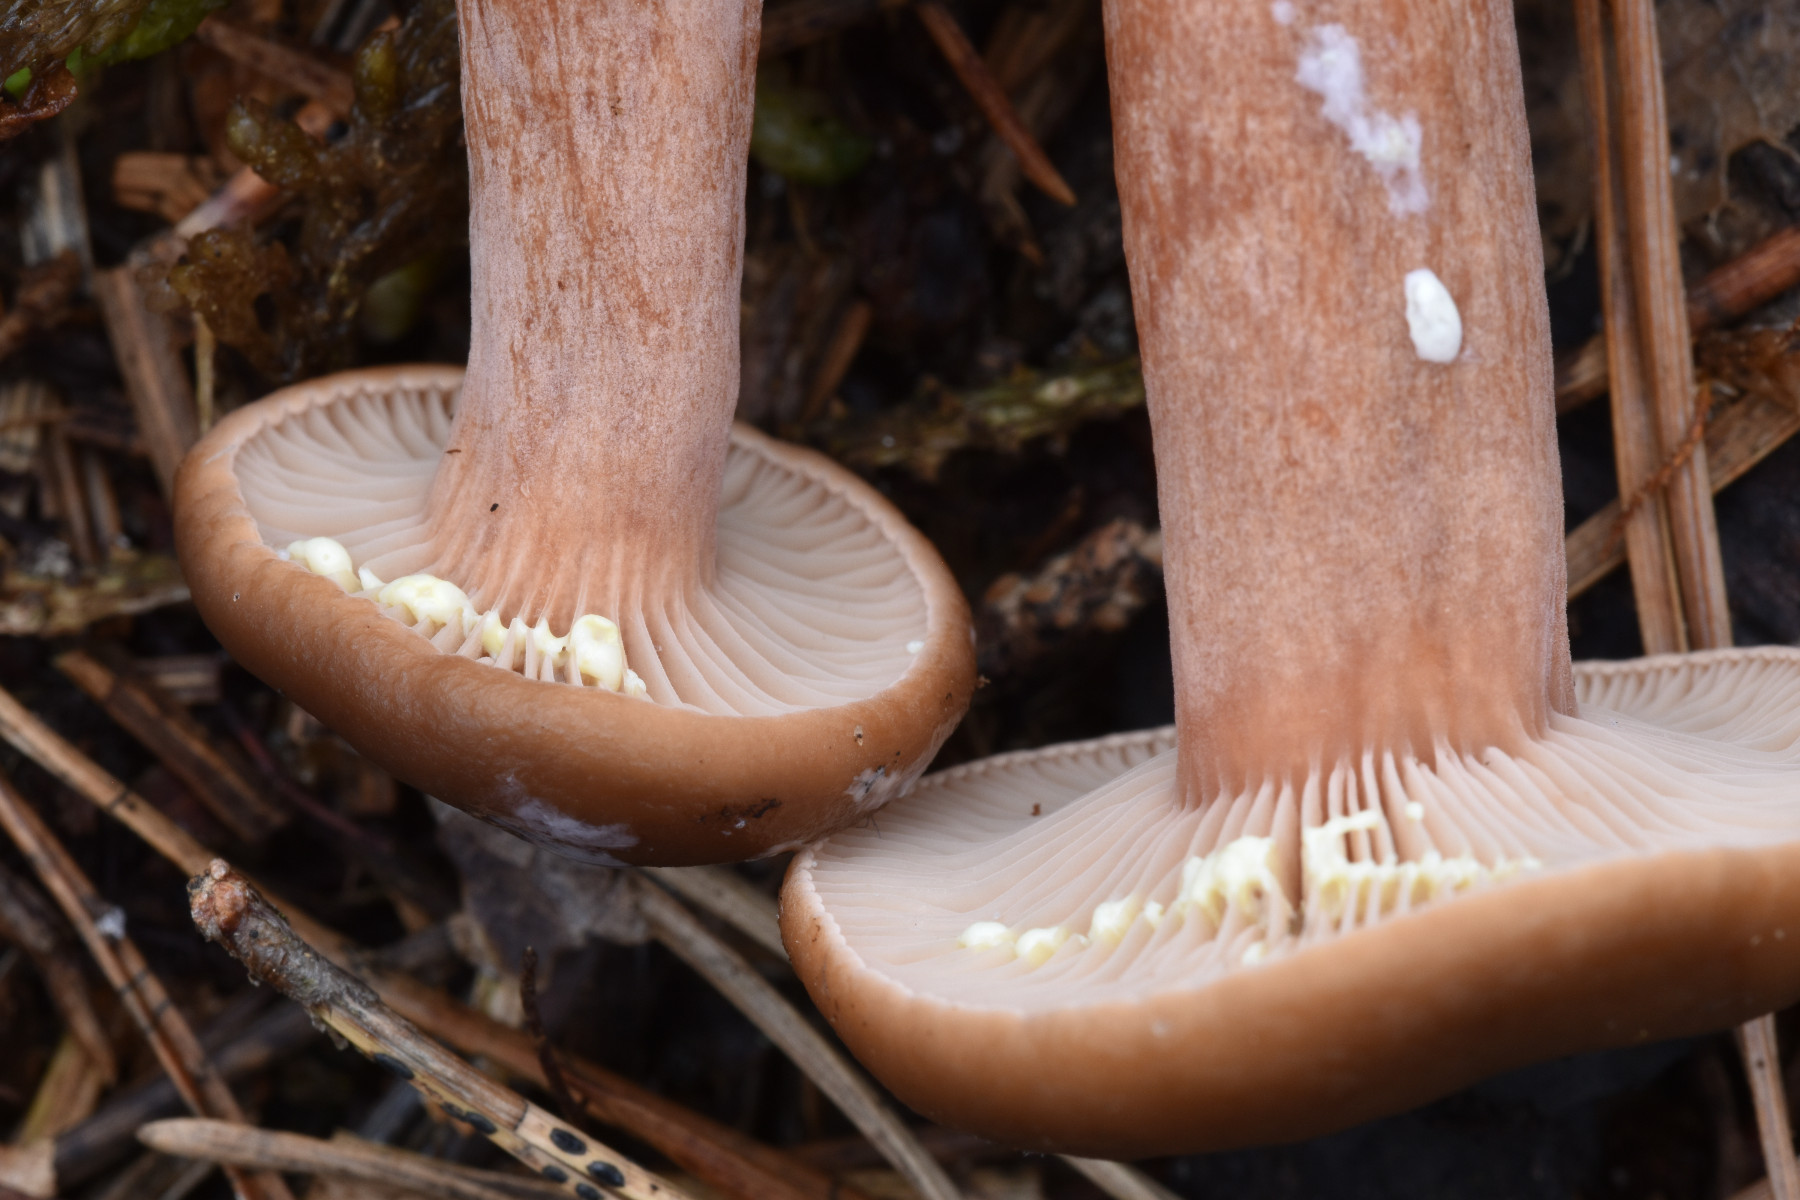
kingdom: Fungi
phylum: Basidiomycota
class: Agaricomycetes
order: Russulales
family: Russulaceae
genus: Lactarius
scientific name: Lactarius hepaticus
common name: leverbrun mælkehat
